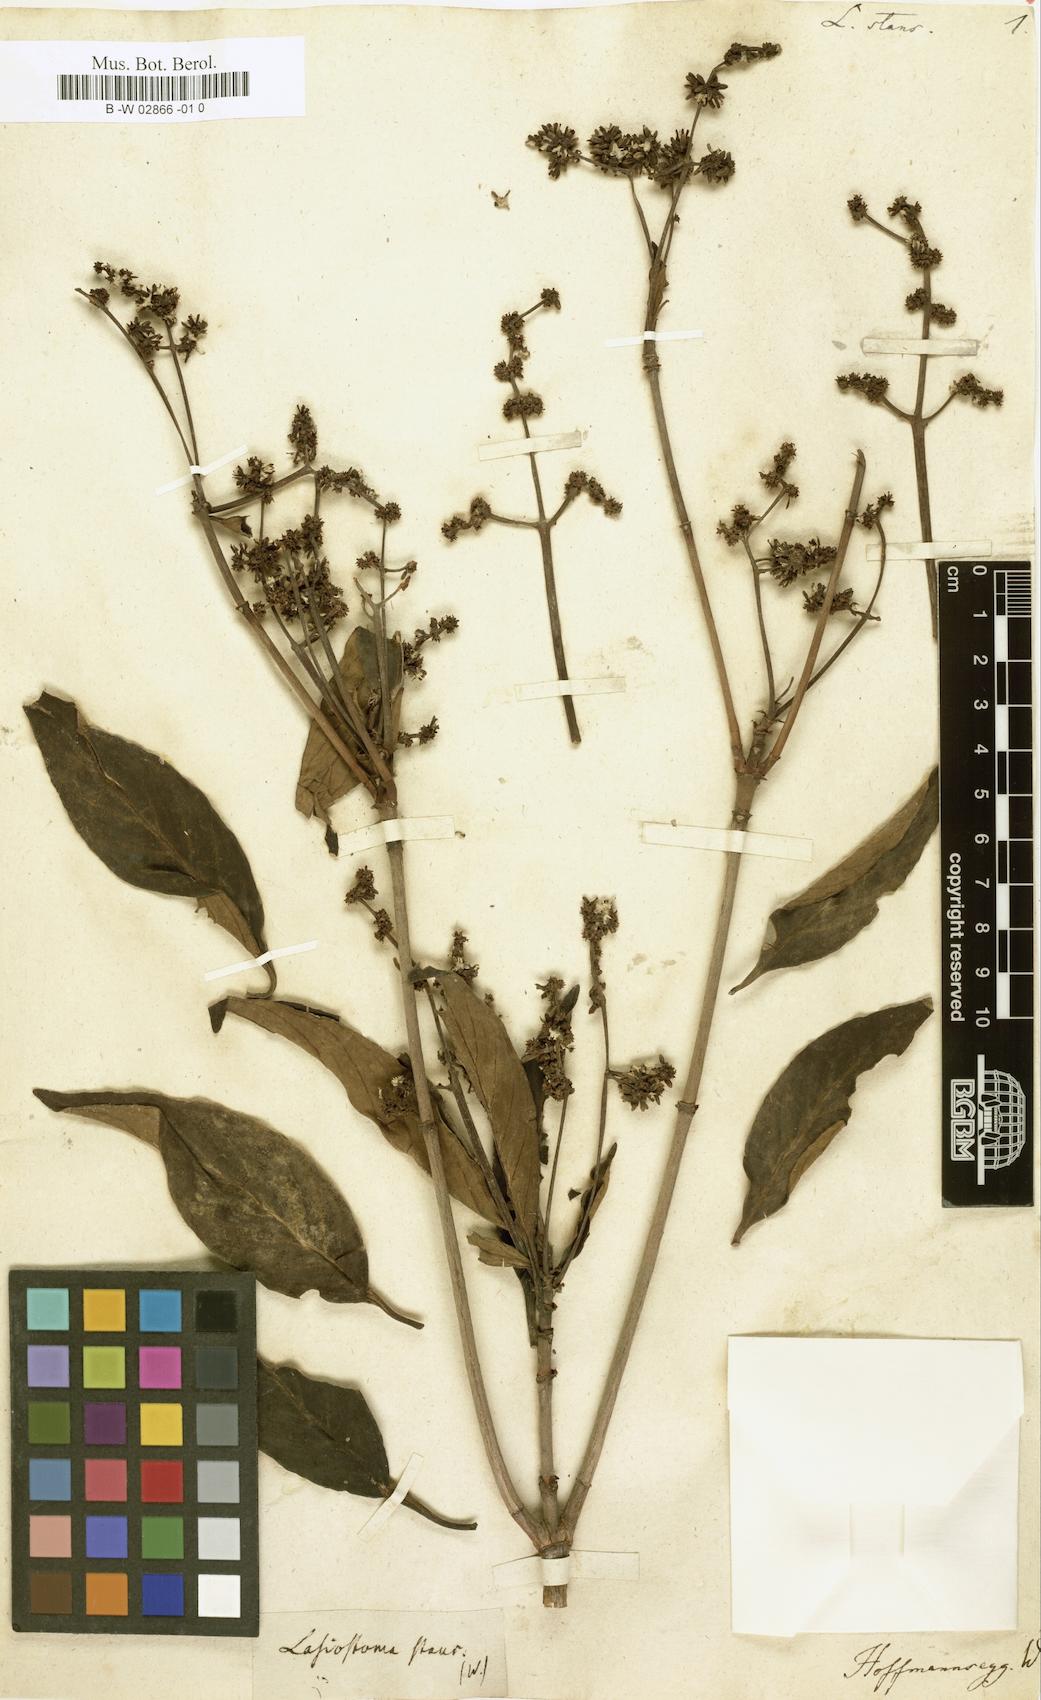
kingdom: Plantae
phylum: Tracheophyta
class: Magnoliopsida
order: Gentianales
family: Loganiaceae
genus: Strychnos
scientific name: Strychnos Lasiostoma stans
